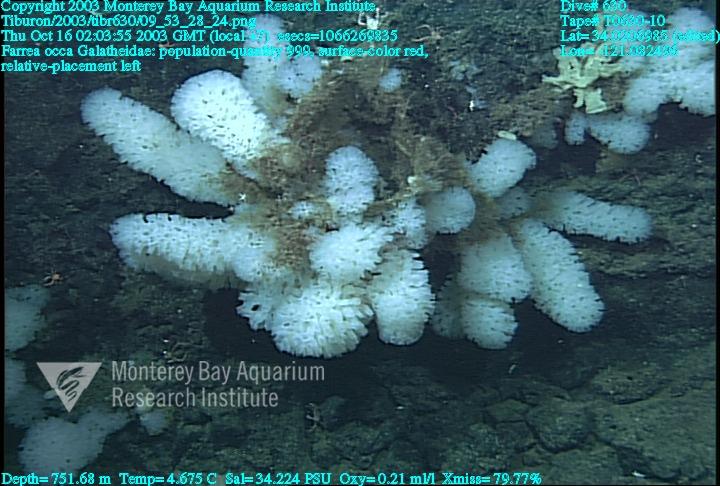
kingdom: Animalia
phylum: Porifera
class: Hexactinellida
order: Sceptrulophora
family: Farreidae
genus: Farrea
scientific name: Farrea occa
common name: Reversed glass sponge
